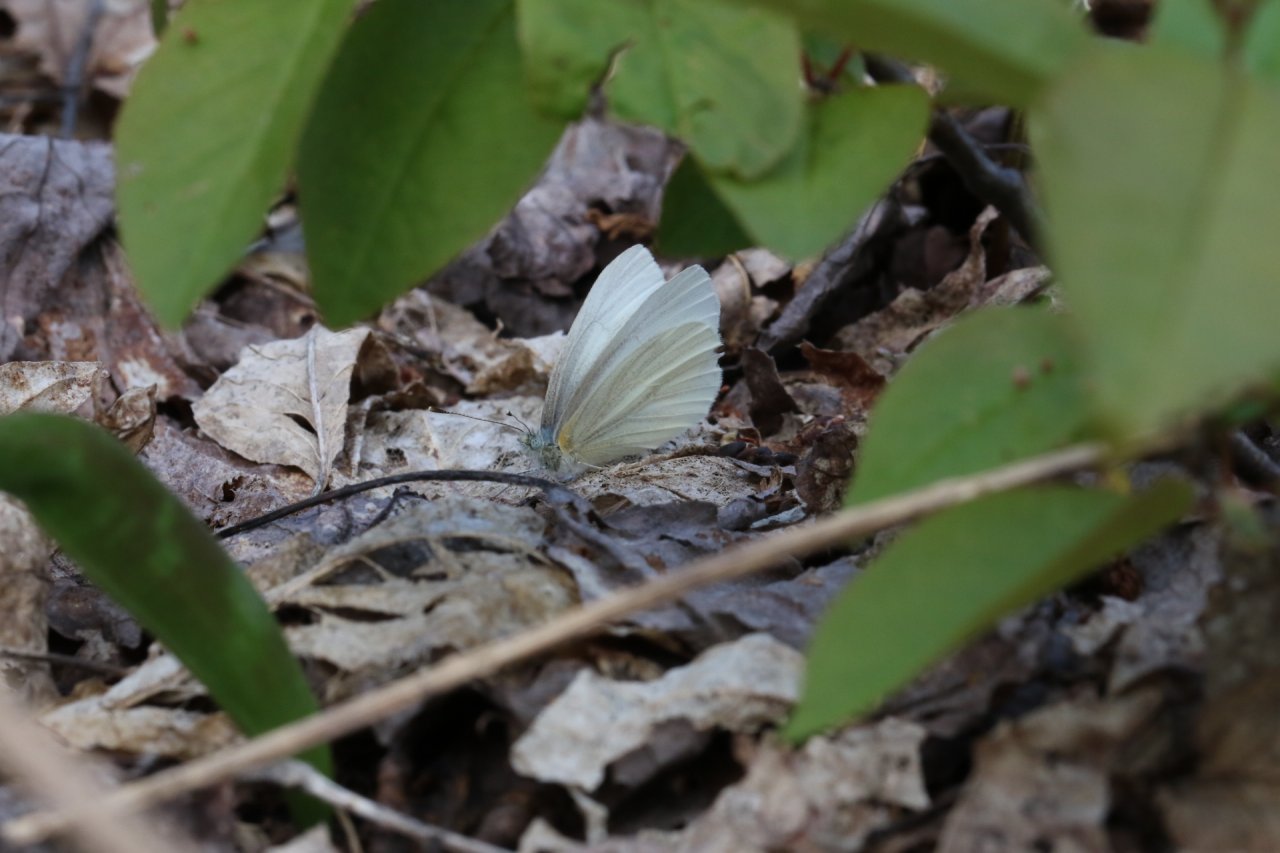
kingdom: Animalia
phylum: Arthropoda
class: Insecta
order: Lepidoptera
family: Pieridae
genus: Pieris
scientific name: Pieris virginiensis
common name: West Virginia White
